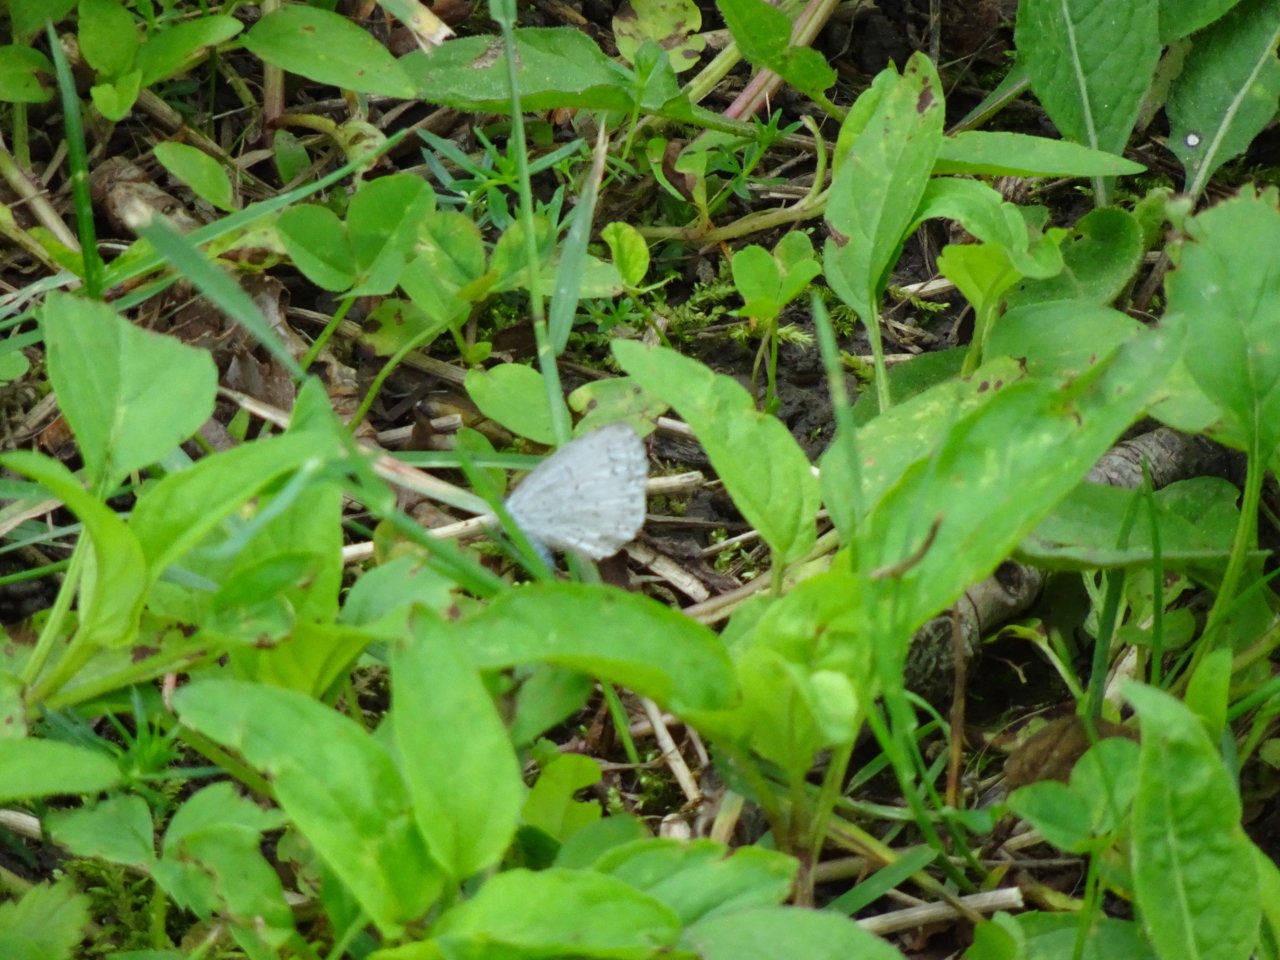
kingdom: Animalia
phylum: Arthropoda
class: Insecta
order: Lepidoptera
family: Lycaenidae
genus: Celastrina
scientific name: Celastrina
